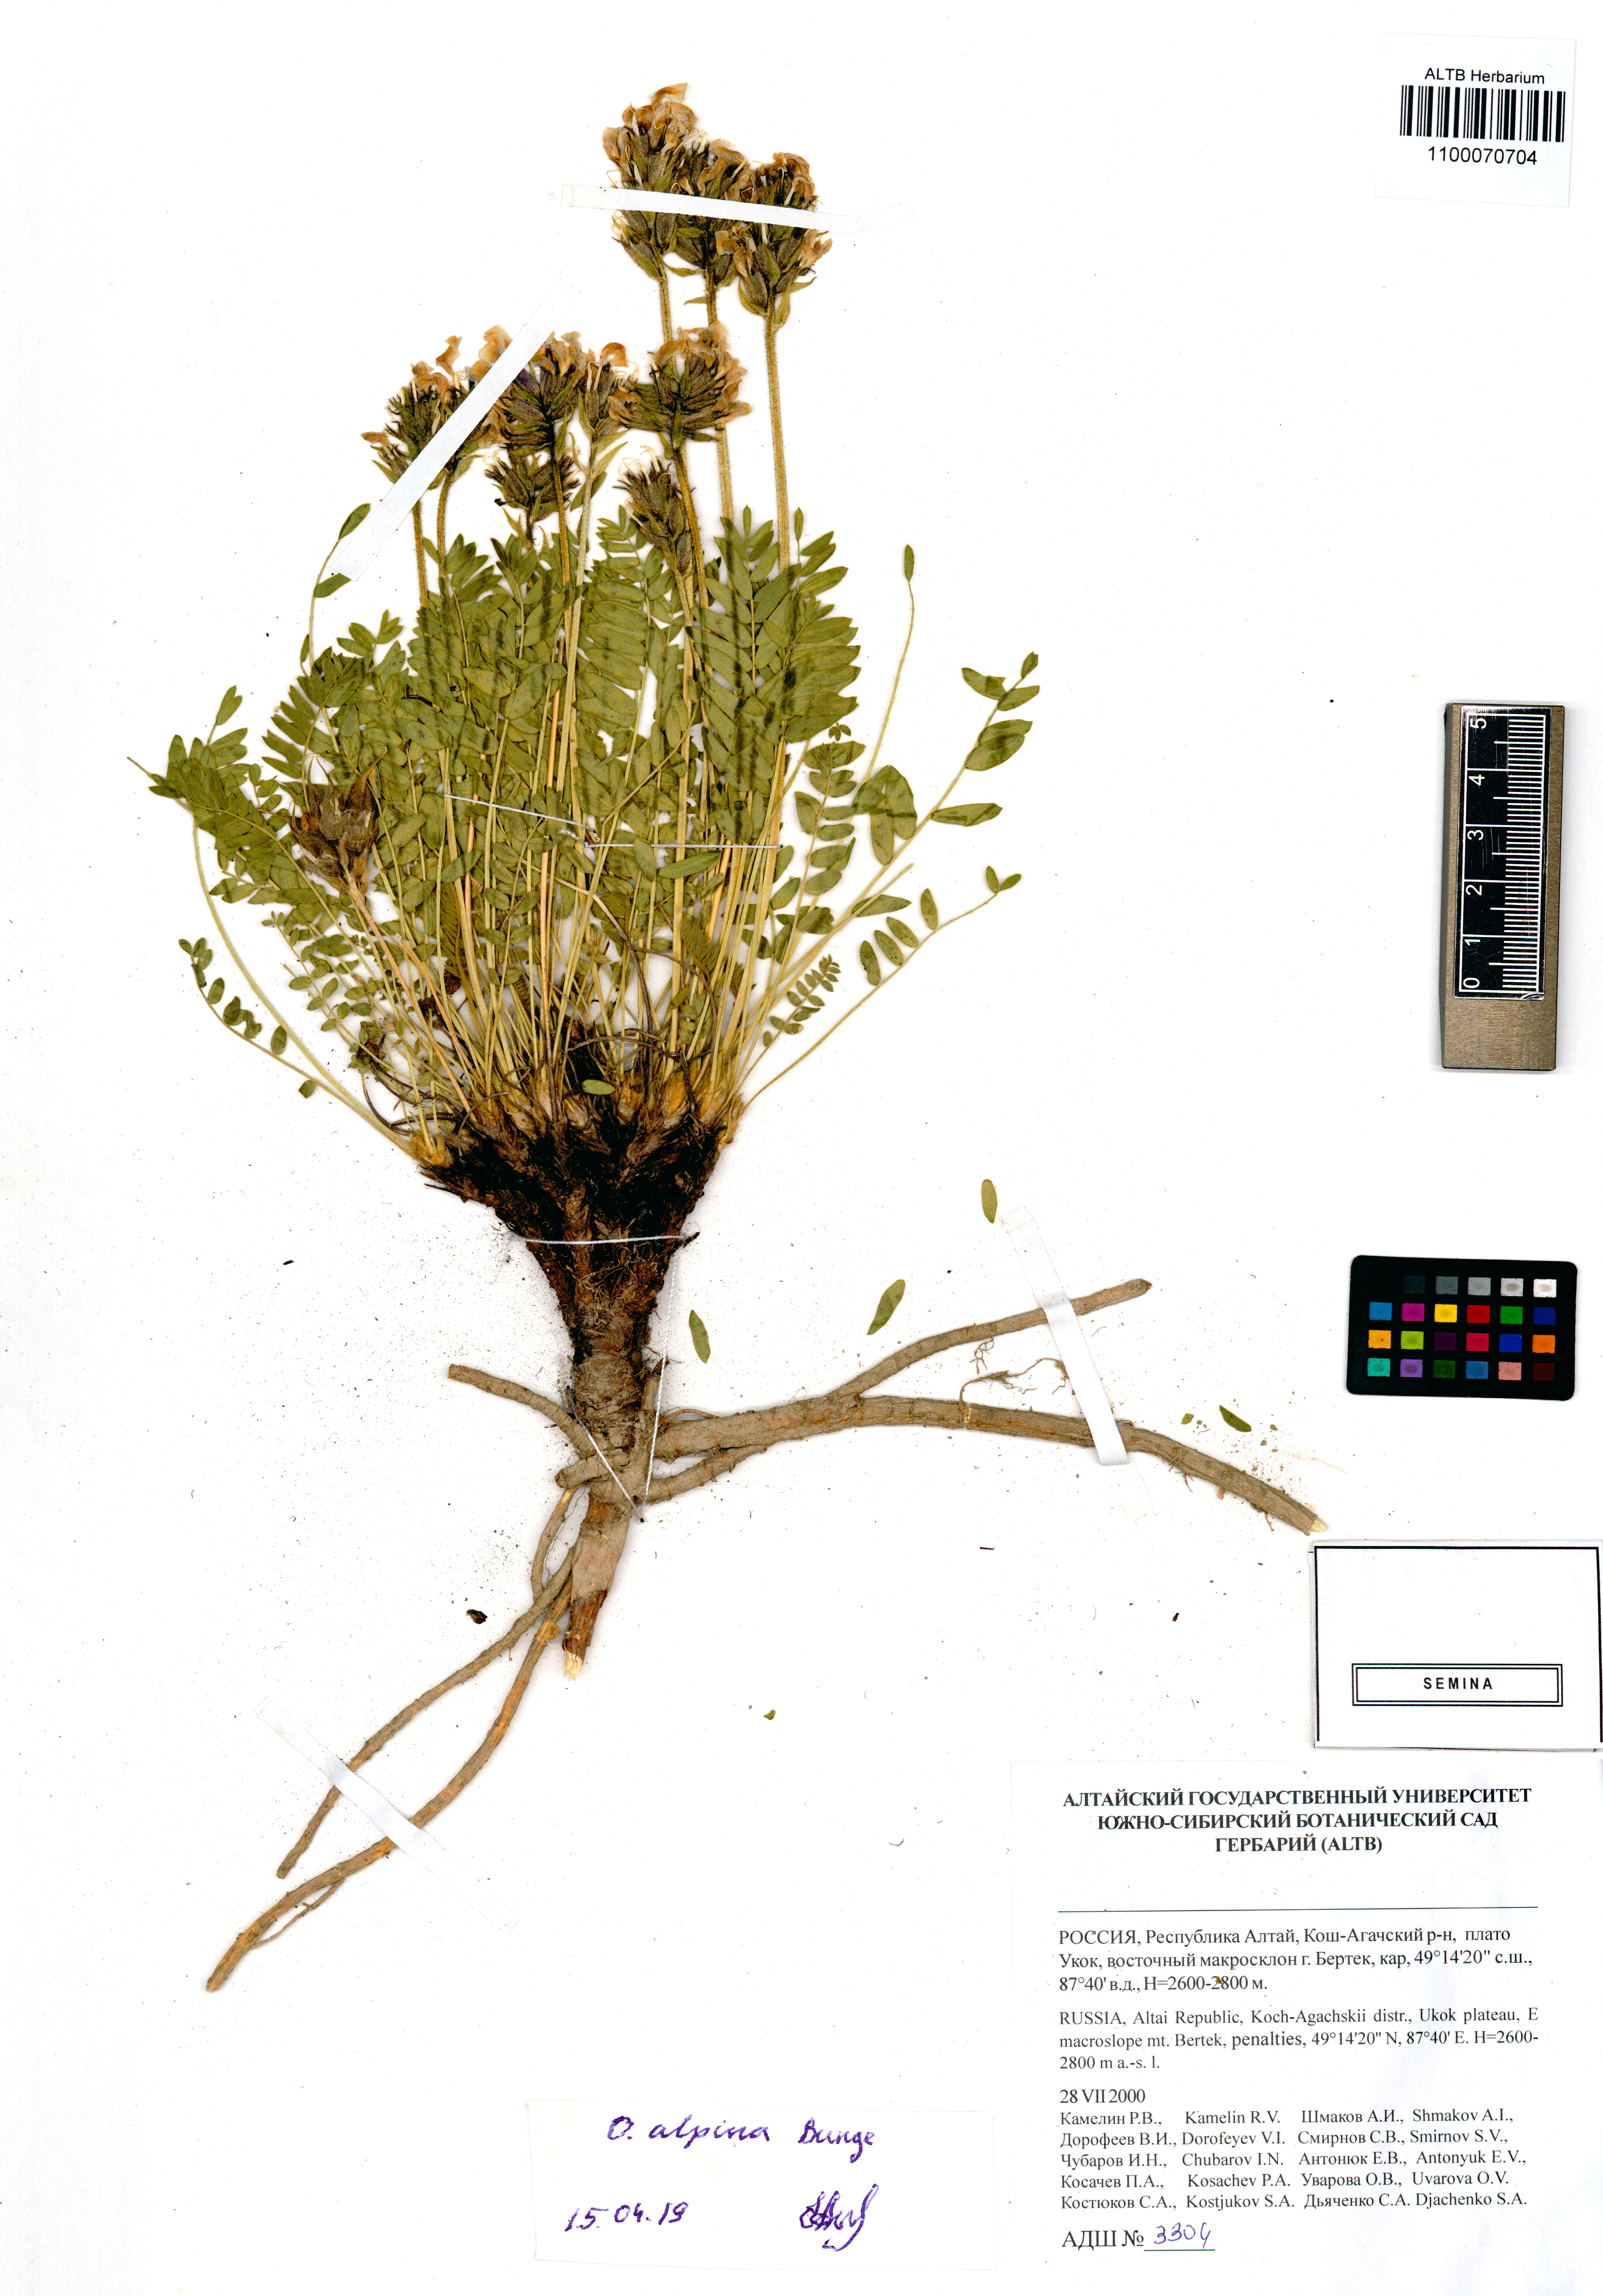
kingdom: Plantae
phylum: Tracheophyta
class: Magnoliopsida
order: Fabales
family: Fabaceae
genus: Oxytropis
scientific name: Oxytropis alpina
